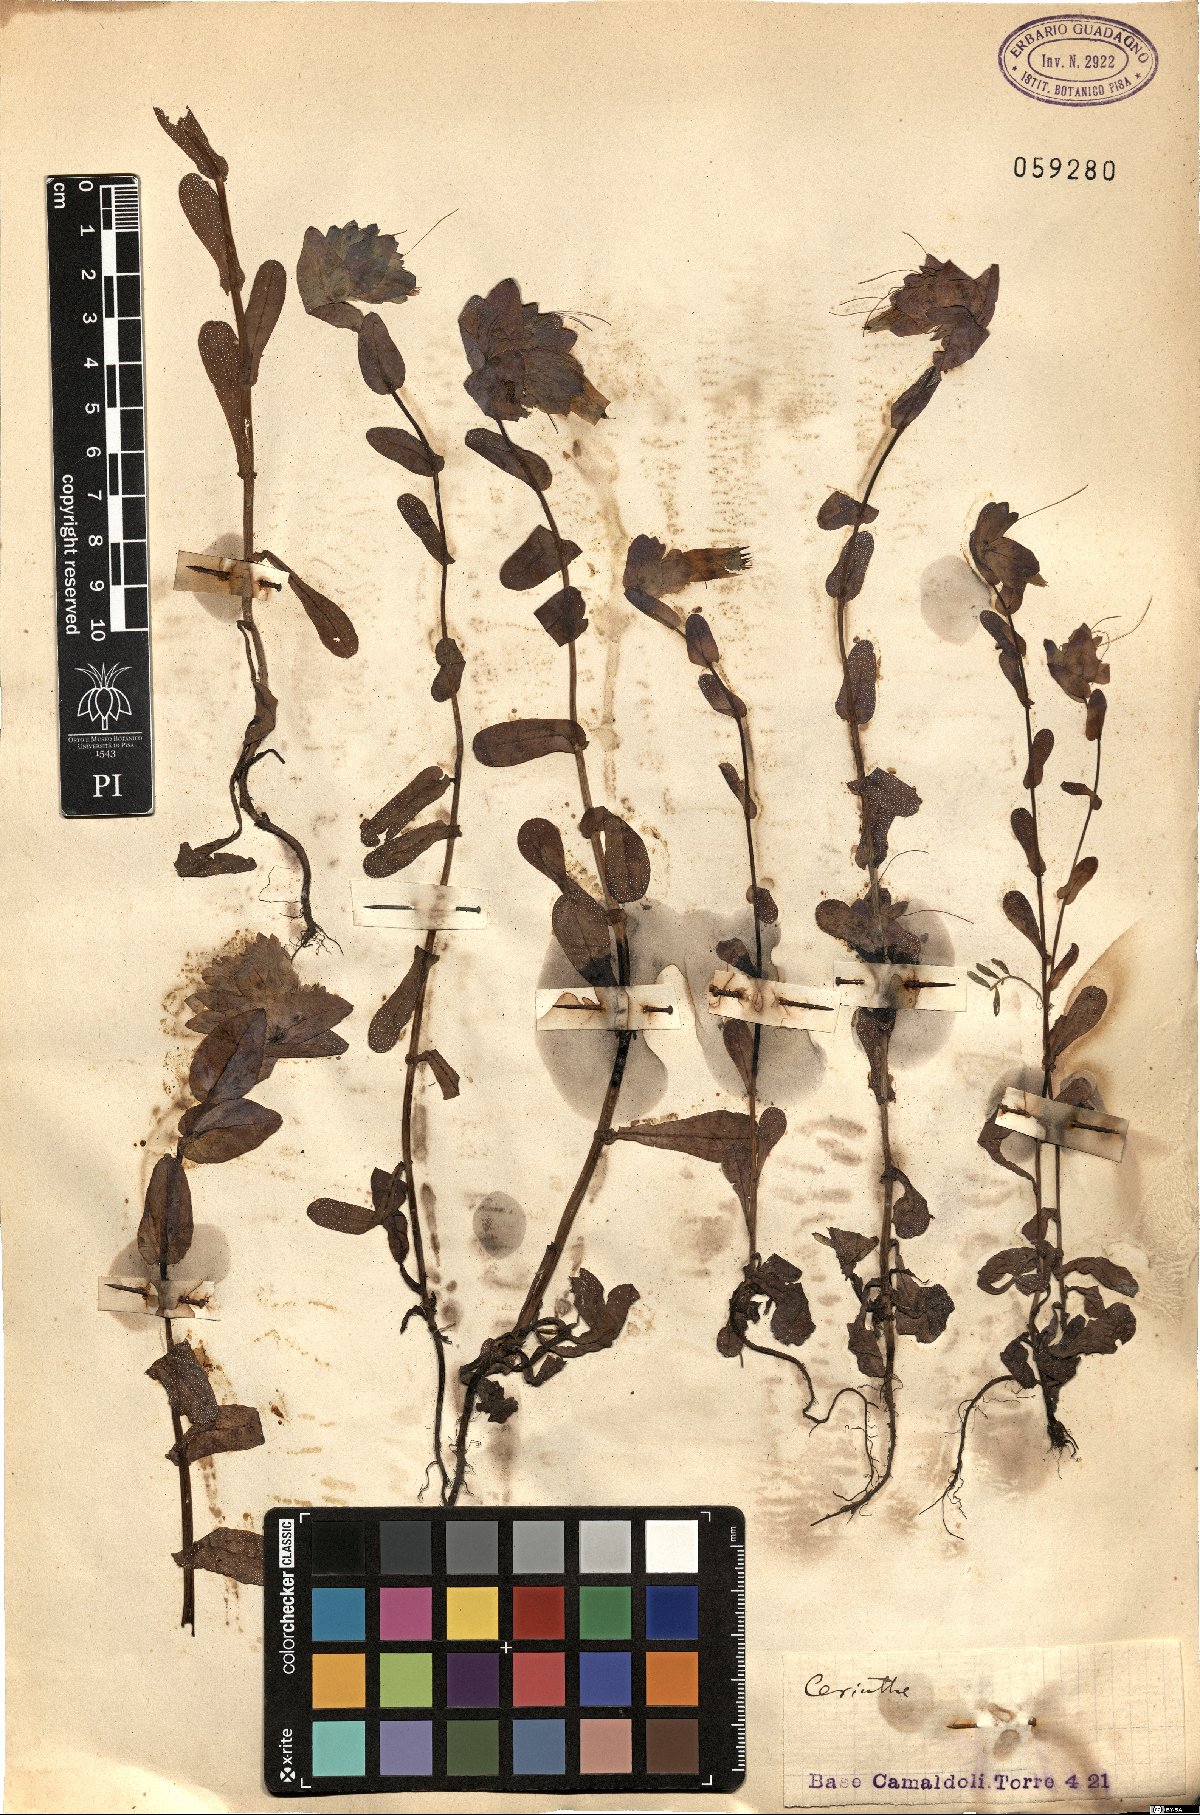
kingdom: Plantae
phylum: Tracheophyta
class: Magnoliopsida
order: Boraginales
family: Boraginaceae
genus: Cerinthe
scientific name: Cerinthe
